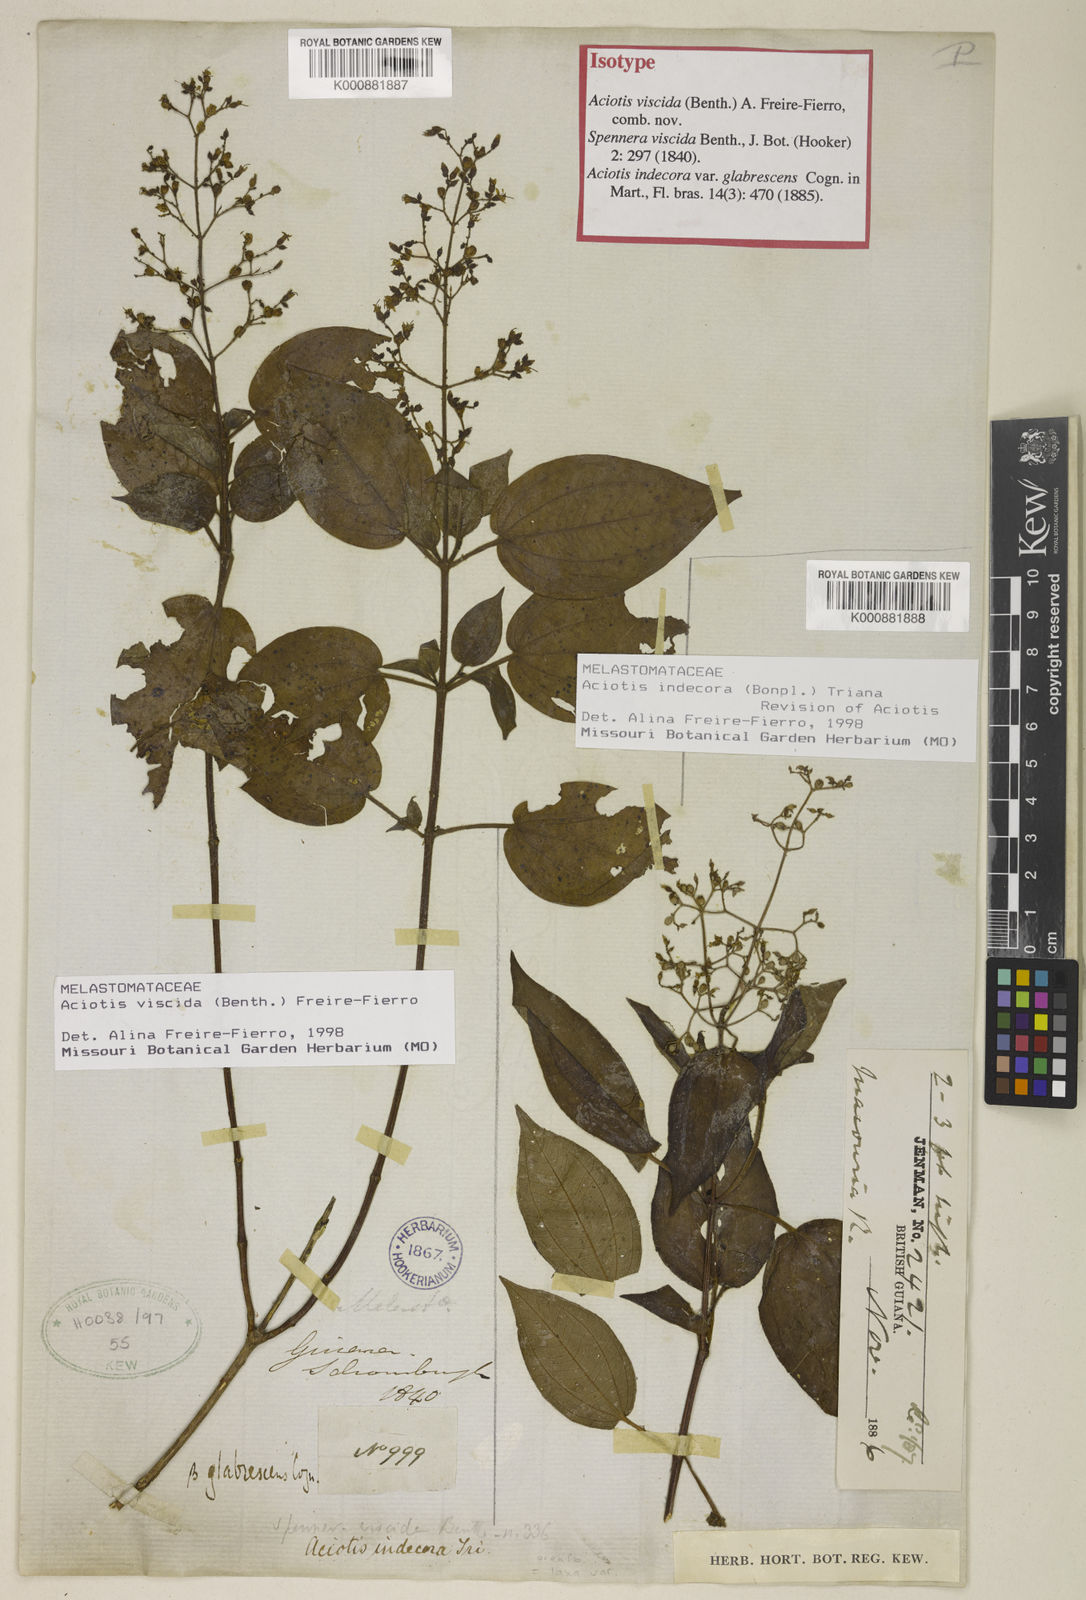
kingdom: Plantae
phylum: Tracheophyta
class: Magnoliopsida
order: Myrtales
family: Melastomataceae
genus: Aciotis
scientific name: Aciotis indecora
